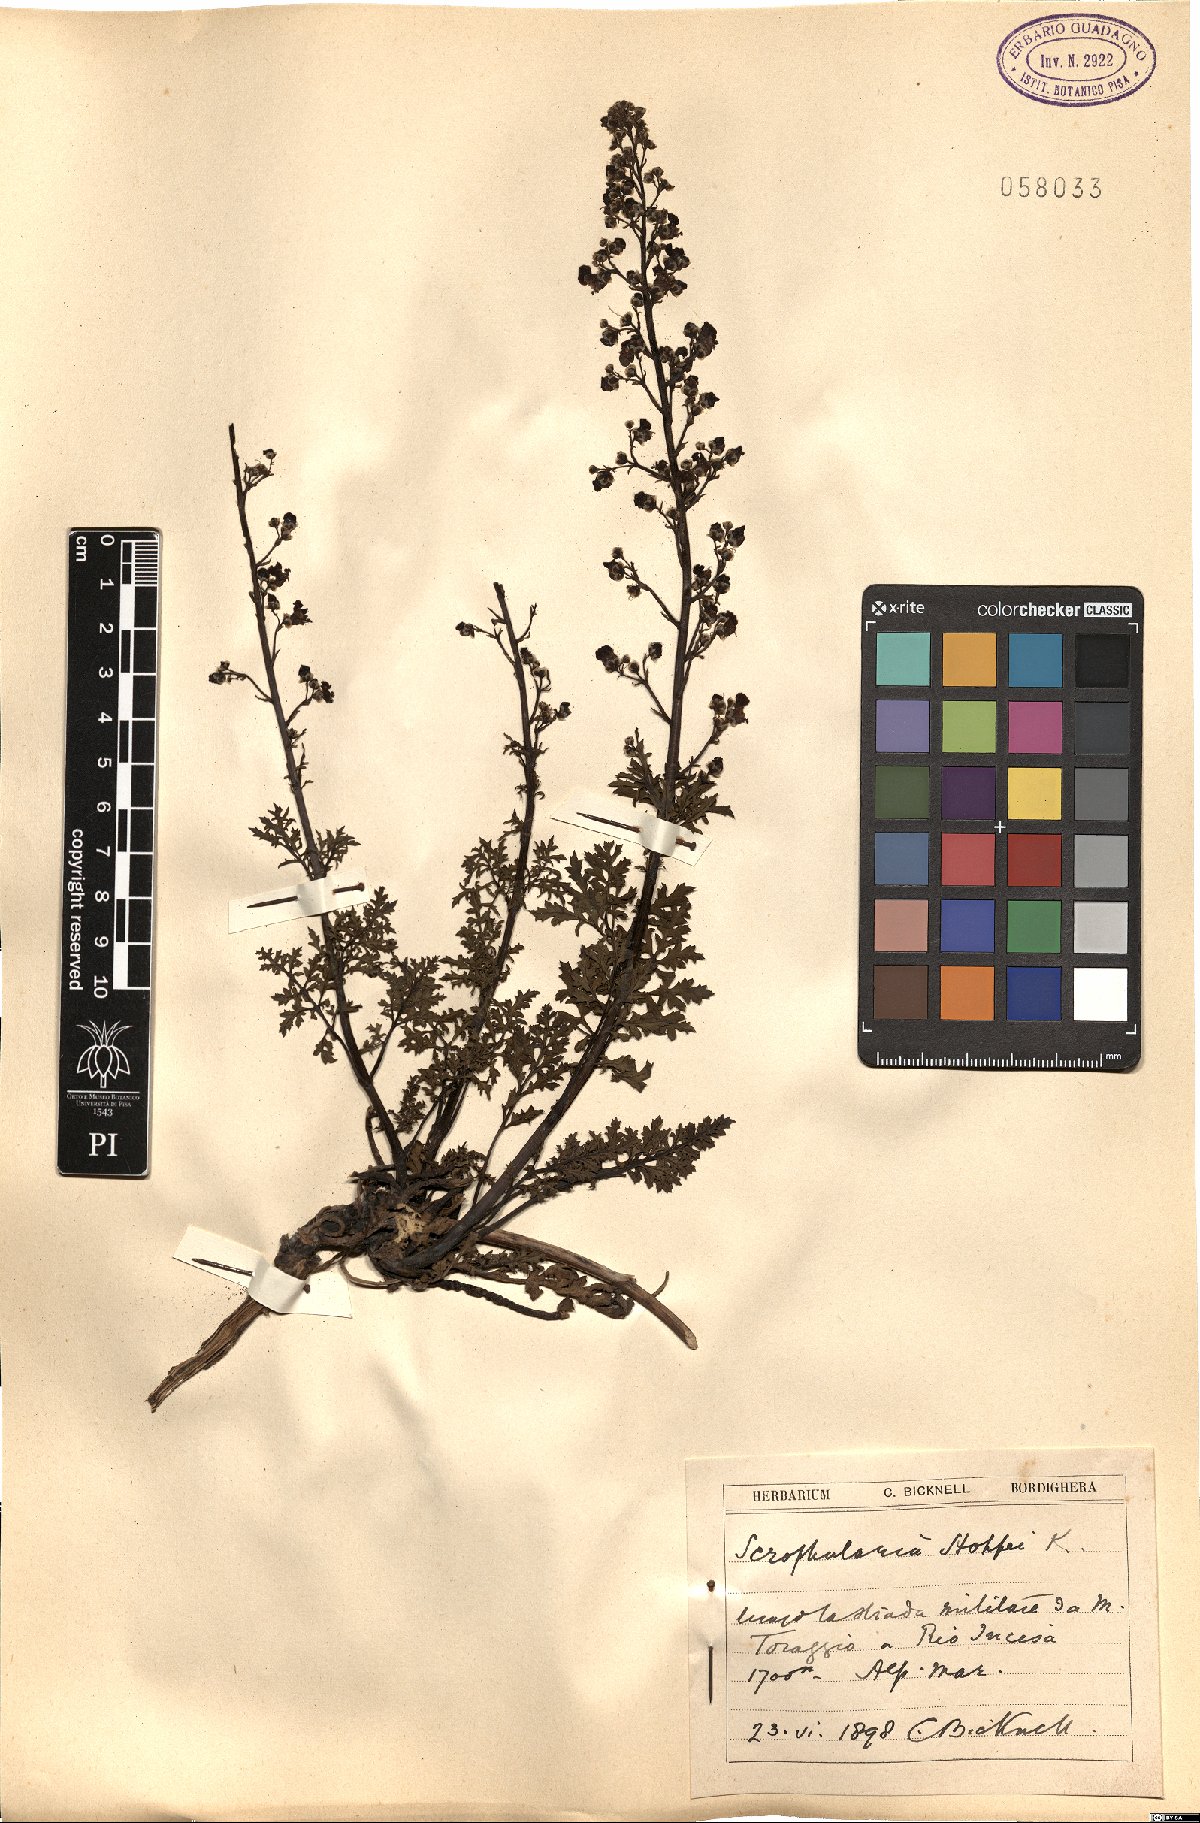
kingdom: Plantae
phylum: Tracheophyta
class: Magnoliopsida
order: Lamiales
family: Scrophulariaceae
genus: Scrophularia
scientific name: Scrophularia canina
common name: French figwort
